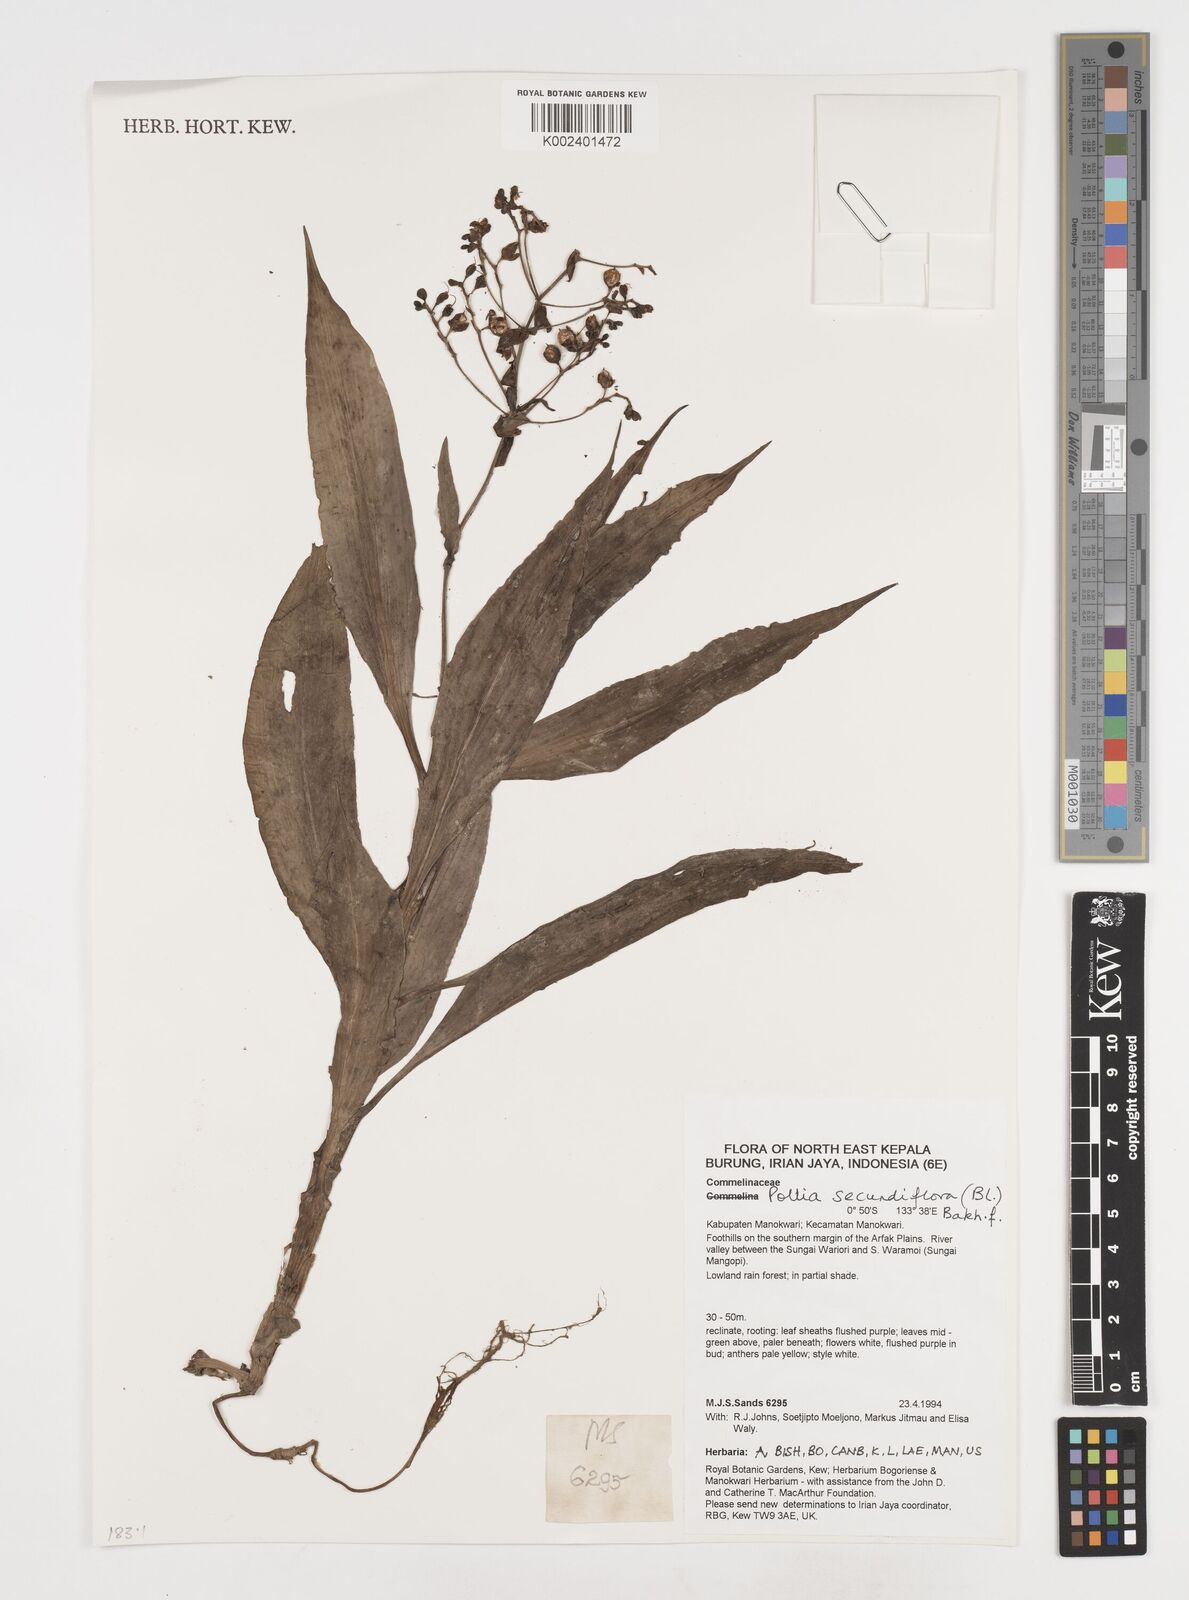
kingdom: Plantae
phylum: Tracheophyta
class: Liliopsida
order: Commelinales
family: Commelinaceae
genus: Pollia
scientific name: Pollia secundiflora
